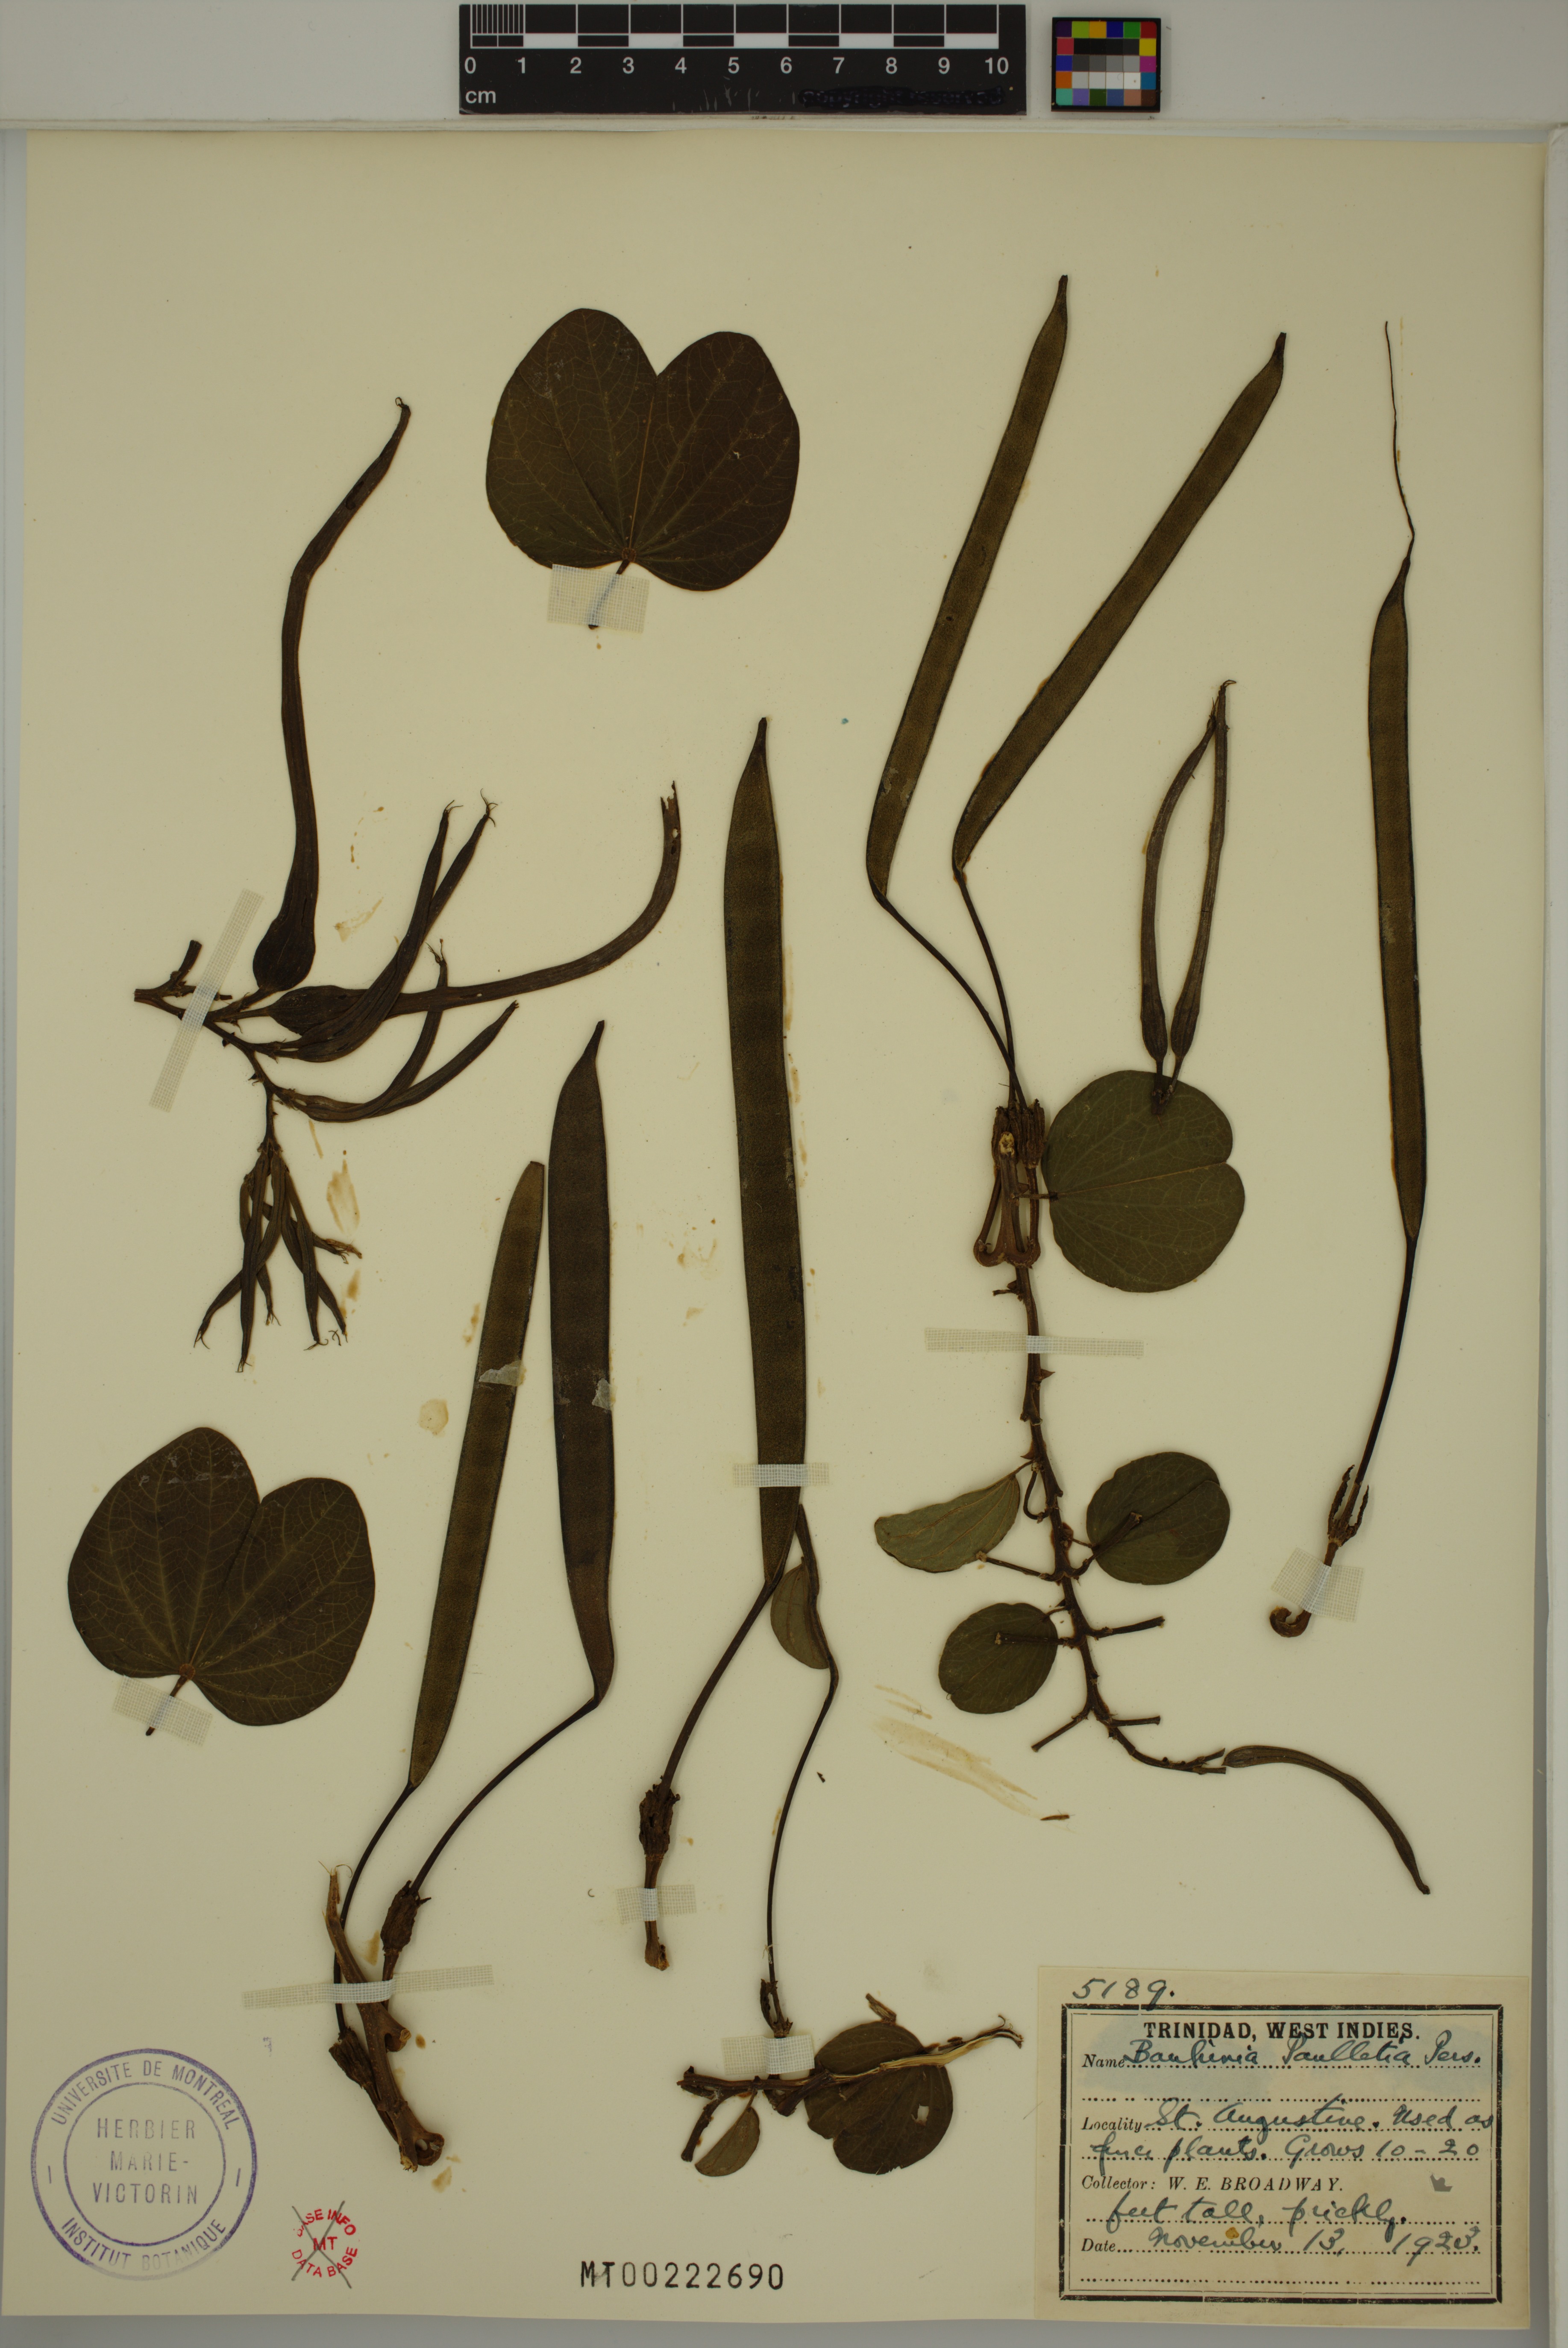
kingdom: Plantae
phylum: Tracheophyta
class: Magnoliopsida
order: Fabales
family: Fabaceae
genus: Bauhinia
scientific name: Bauhinia pauletia
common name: Railway-fence bauhinia
